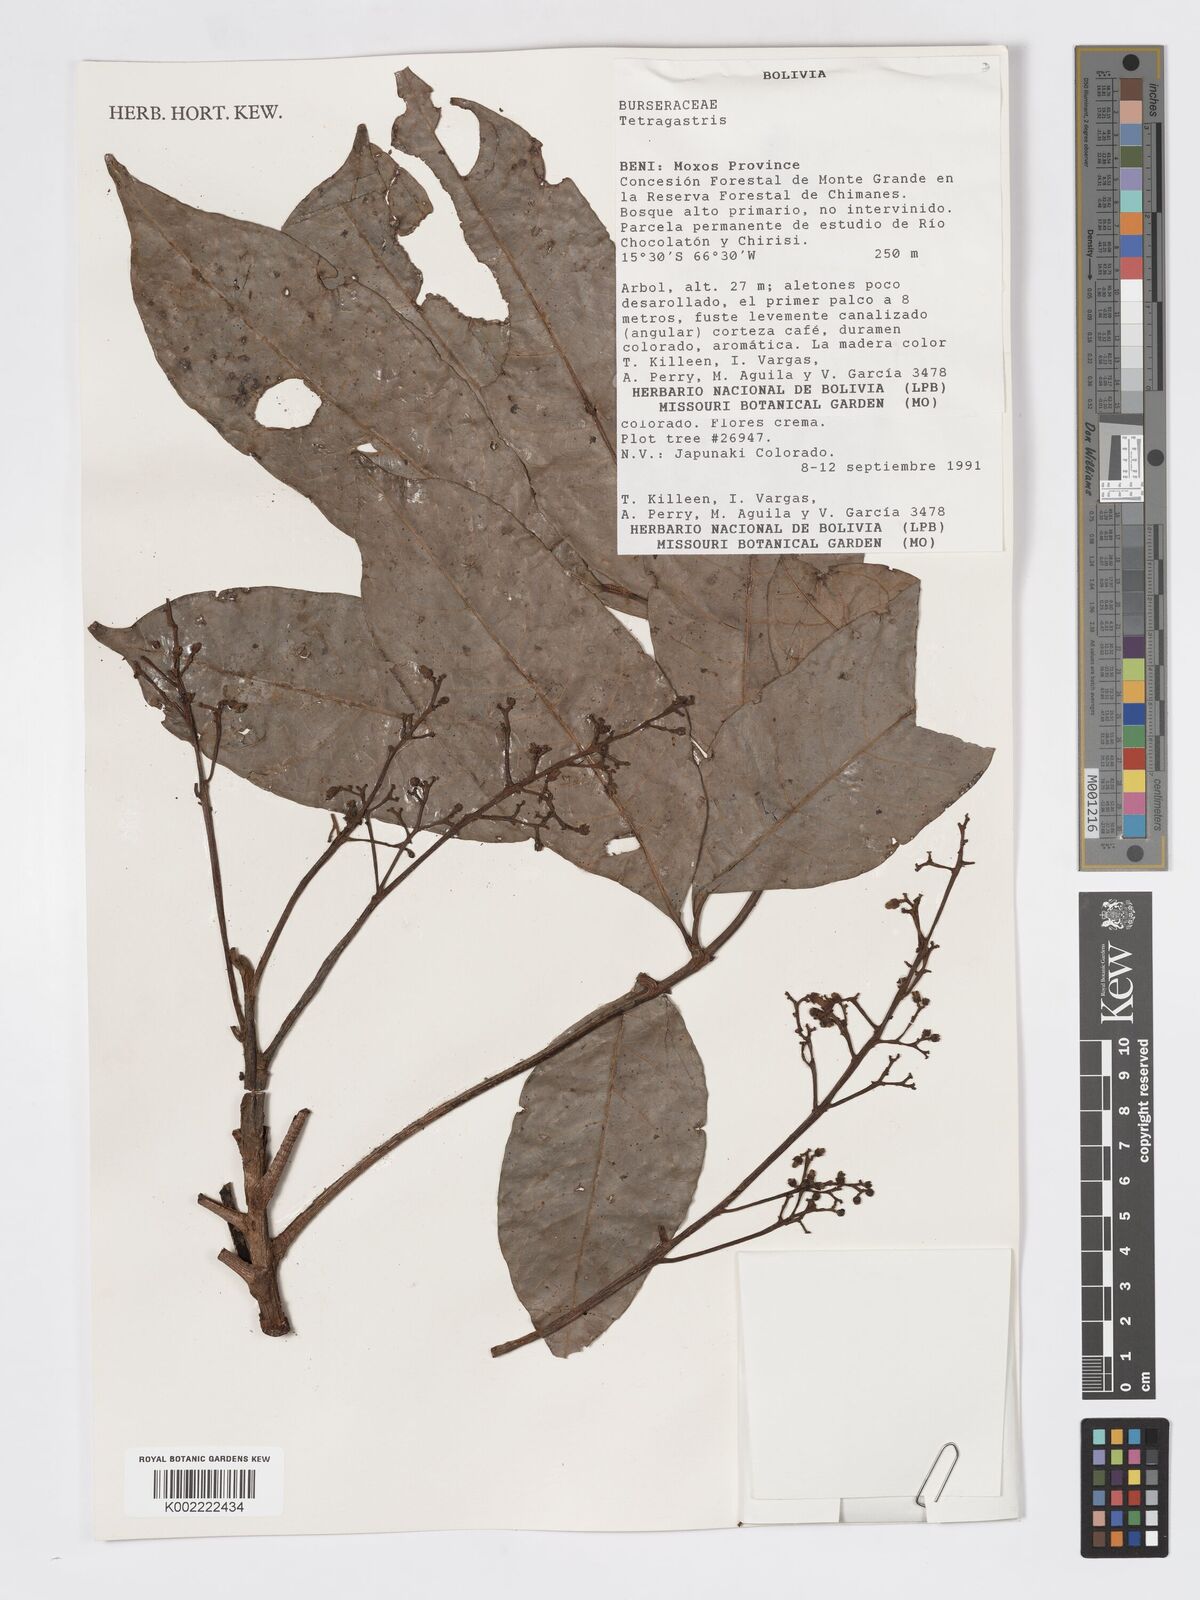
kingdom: Plantae
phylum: Tracheophyta
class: Magnoliopsida
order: Sapindales
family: Burseraceae
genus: Tetragastris
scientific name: Tetragastris
